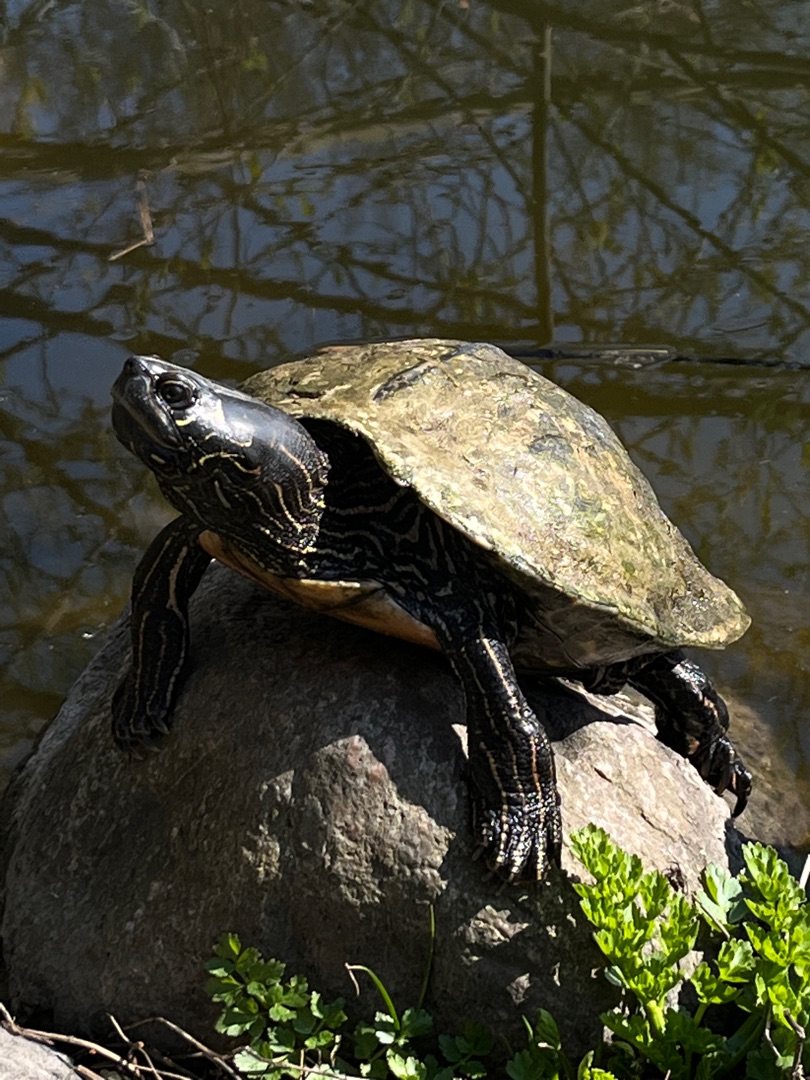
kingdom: Animalia
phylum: Chordata
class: Testudines
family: Emydidae
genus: Trachemys
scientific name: Trachemys scripta
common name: Nordamerikansk terrapin
